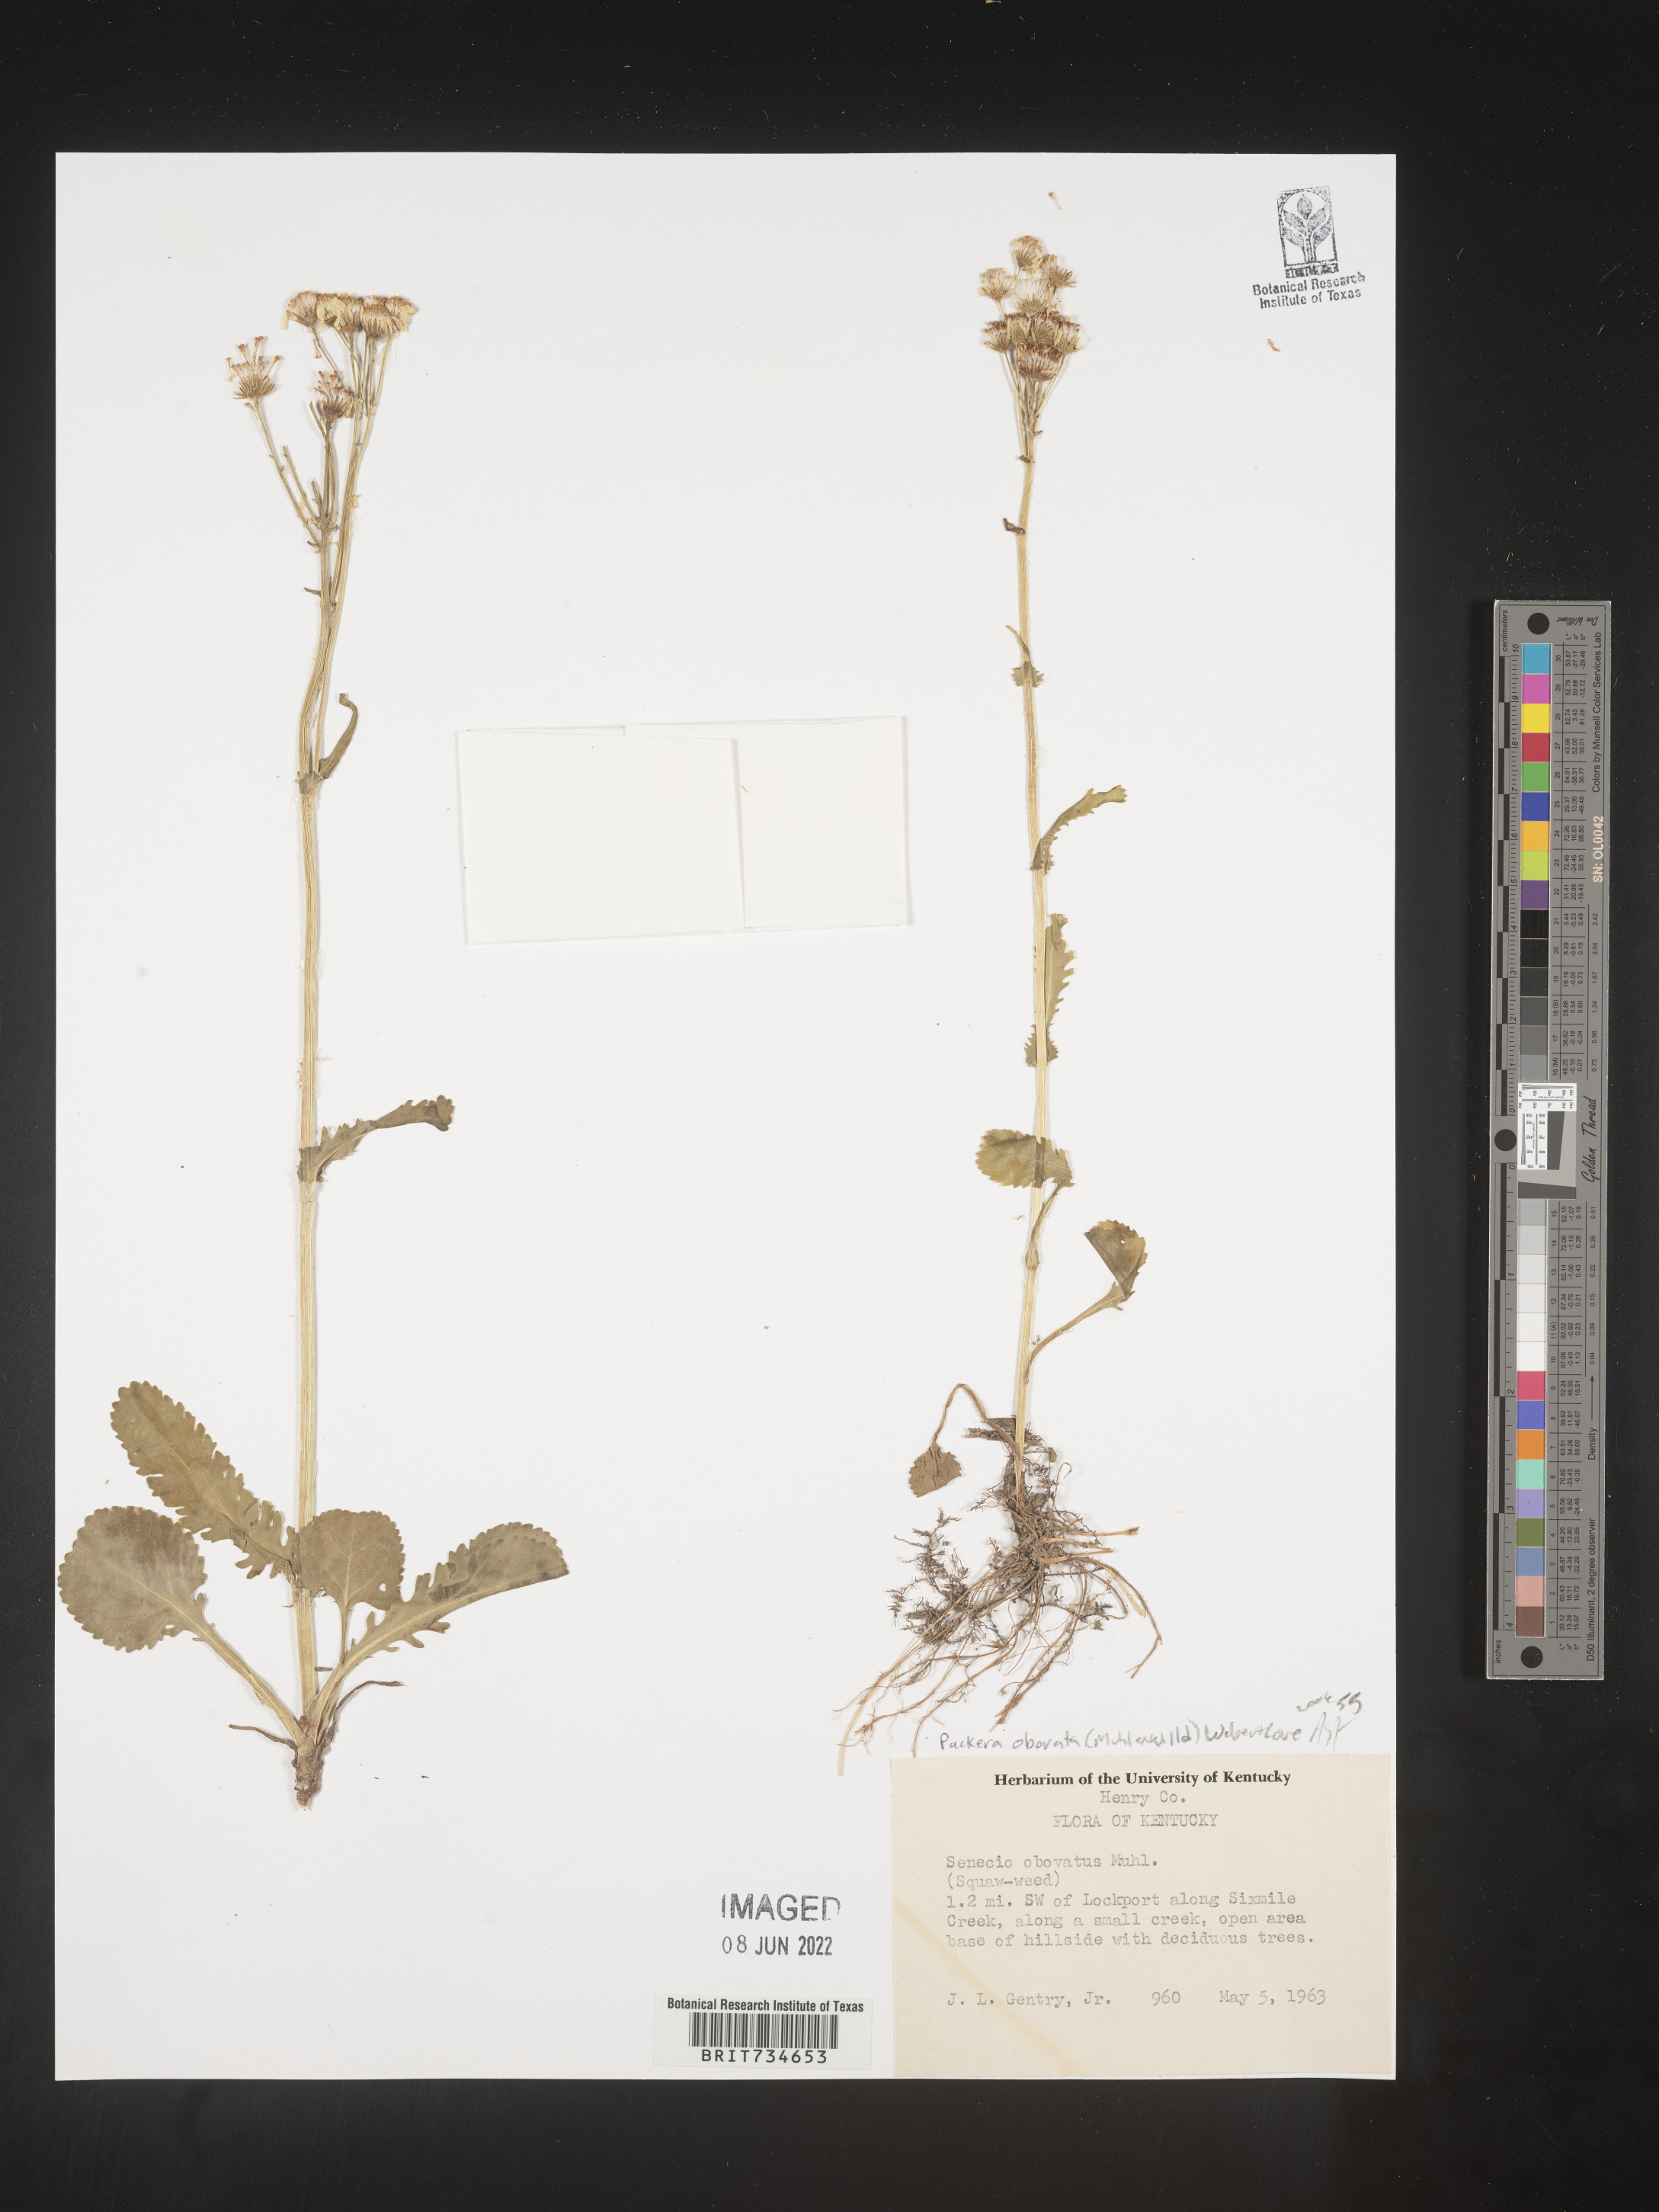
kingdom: Plantae
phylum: Tracheophyta
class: Magnoliopsida
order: Asterales
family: Asteraceae
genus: Packera
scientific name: Packera obovata
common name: Round-leaf ragwort
